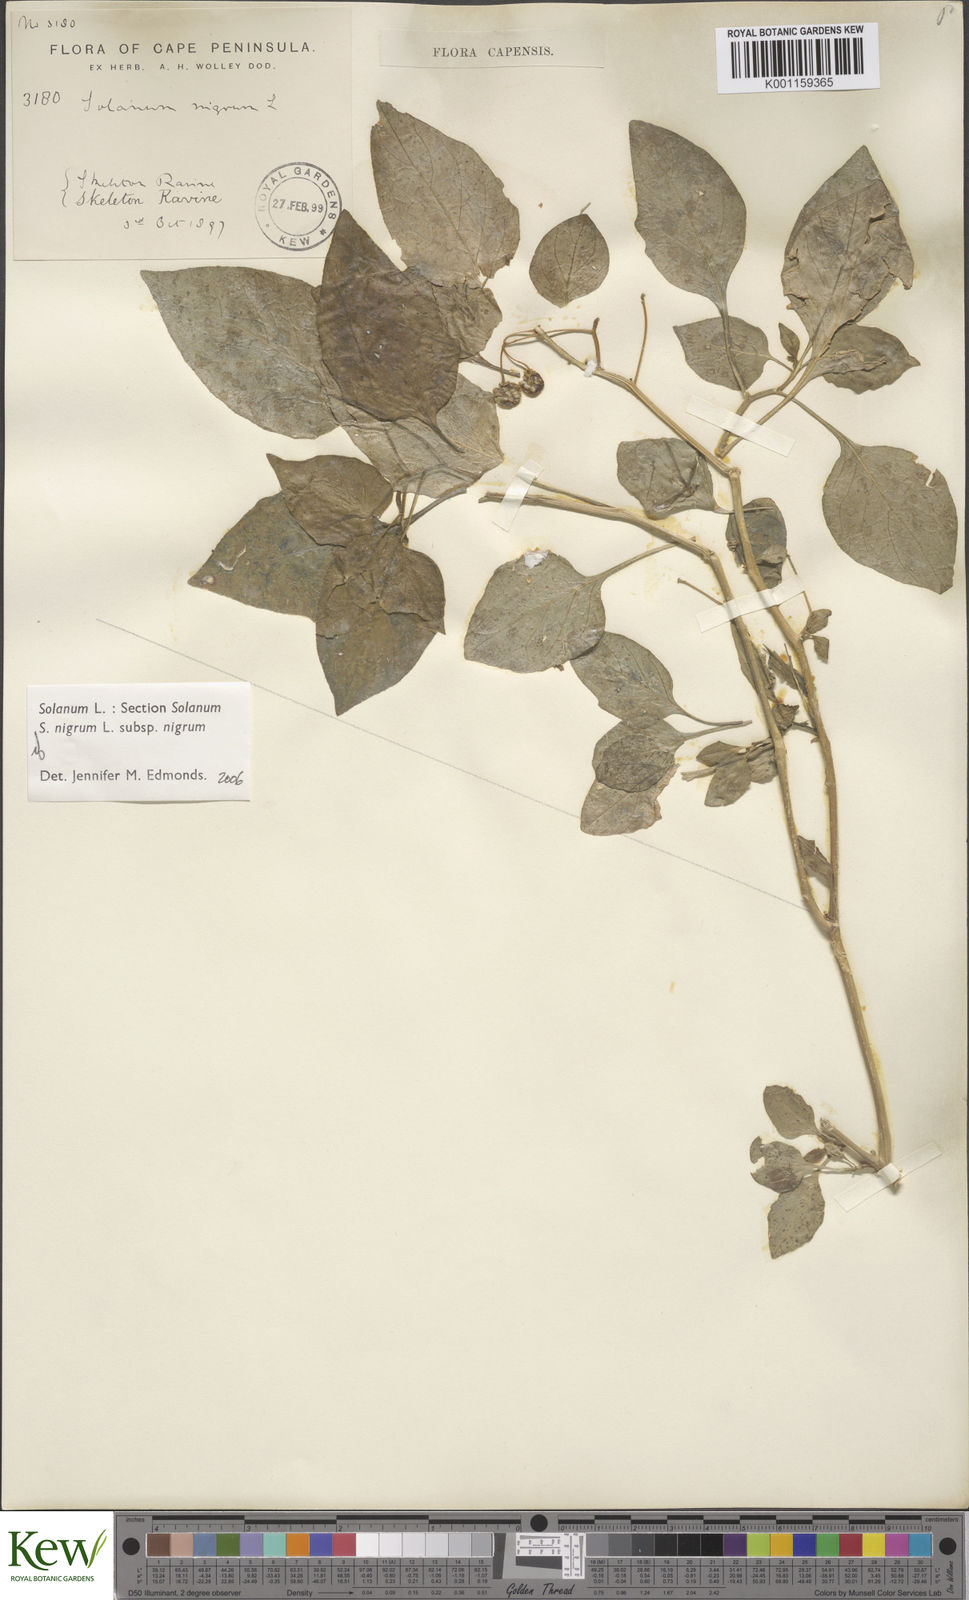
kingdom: Plantae
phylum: Tracheophyta
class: Magnoliopsida
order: Solanales
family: Solanaceae
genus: Solanum
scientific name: Solanum scabrum
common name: Garden-huckleberry
